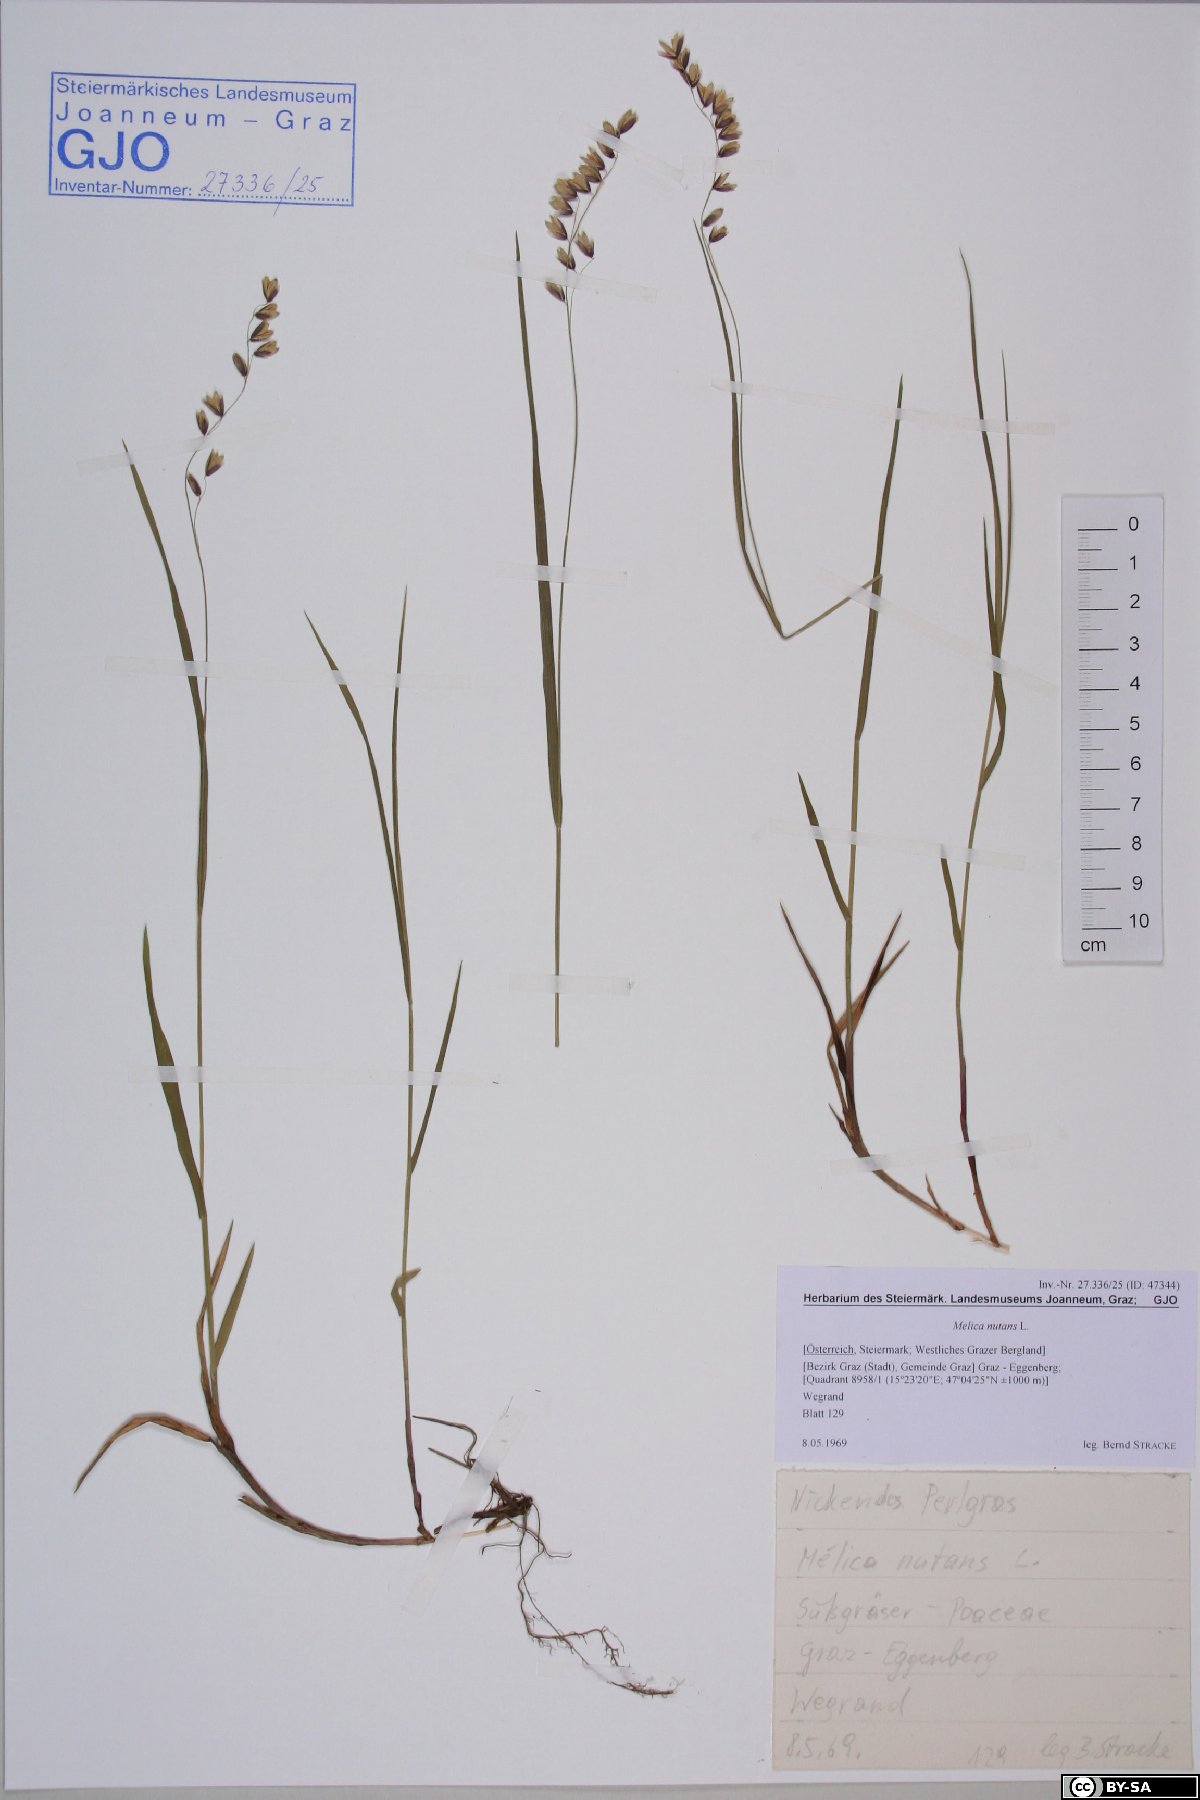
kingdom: Plantae
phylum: Tracheophyta
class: Liliopsida
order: Poales
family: Poaceae
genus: Melica
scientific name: Melica nutans
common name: Mountain melick
